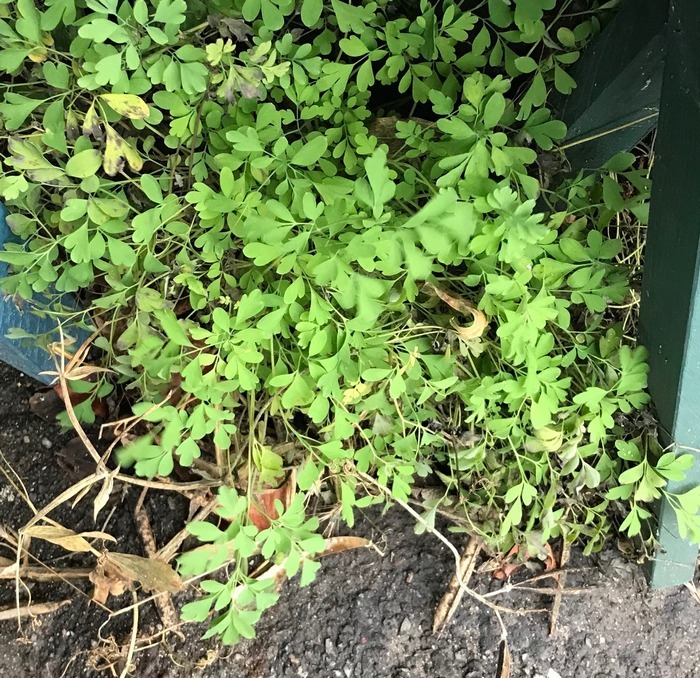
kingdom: Plantae
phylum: Tracheophyta
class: Magnoliopsida
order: Ranunculales
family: Papaveraceae
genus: Pseudofumaria
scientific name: Pseudofumaria lutea
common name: Gul lærkespore
